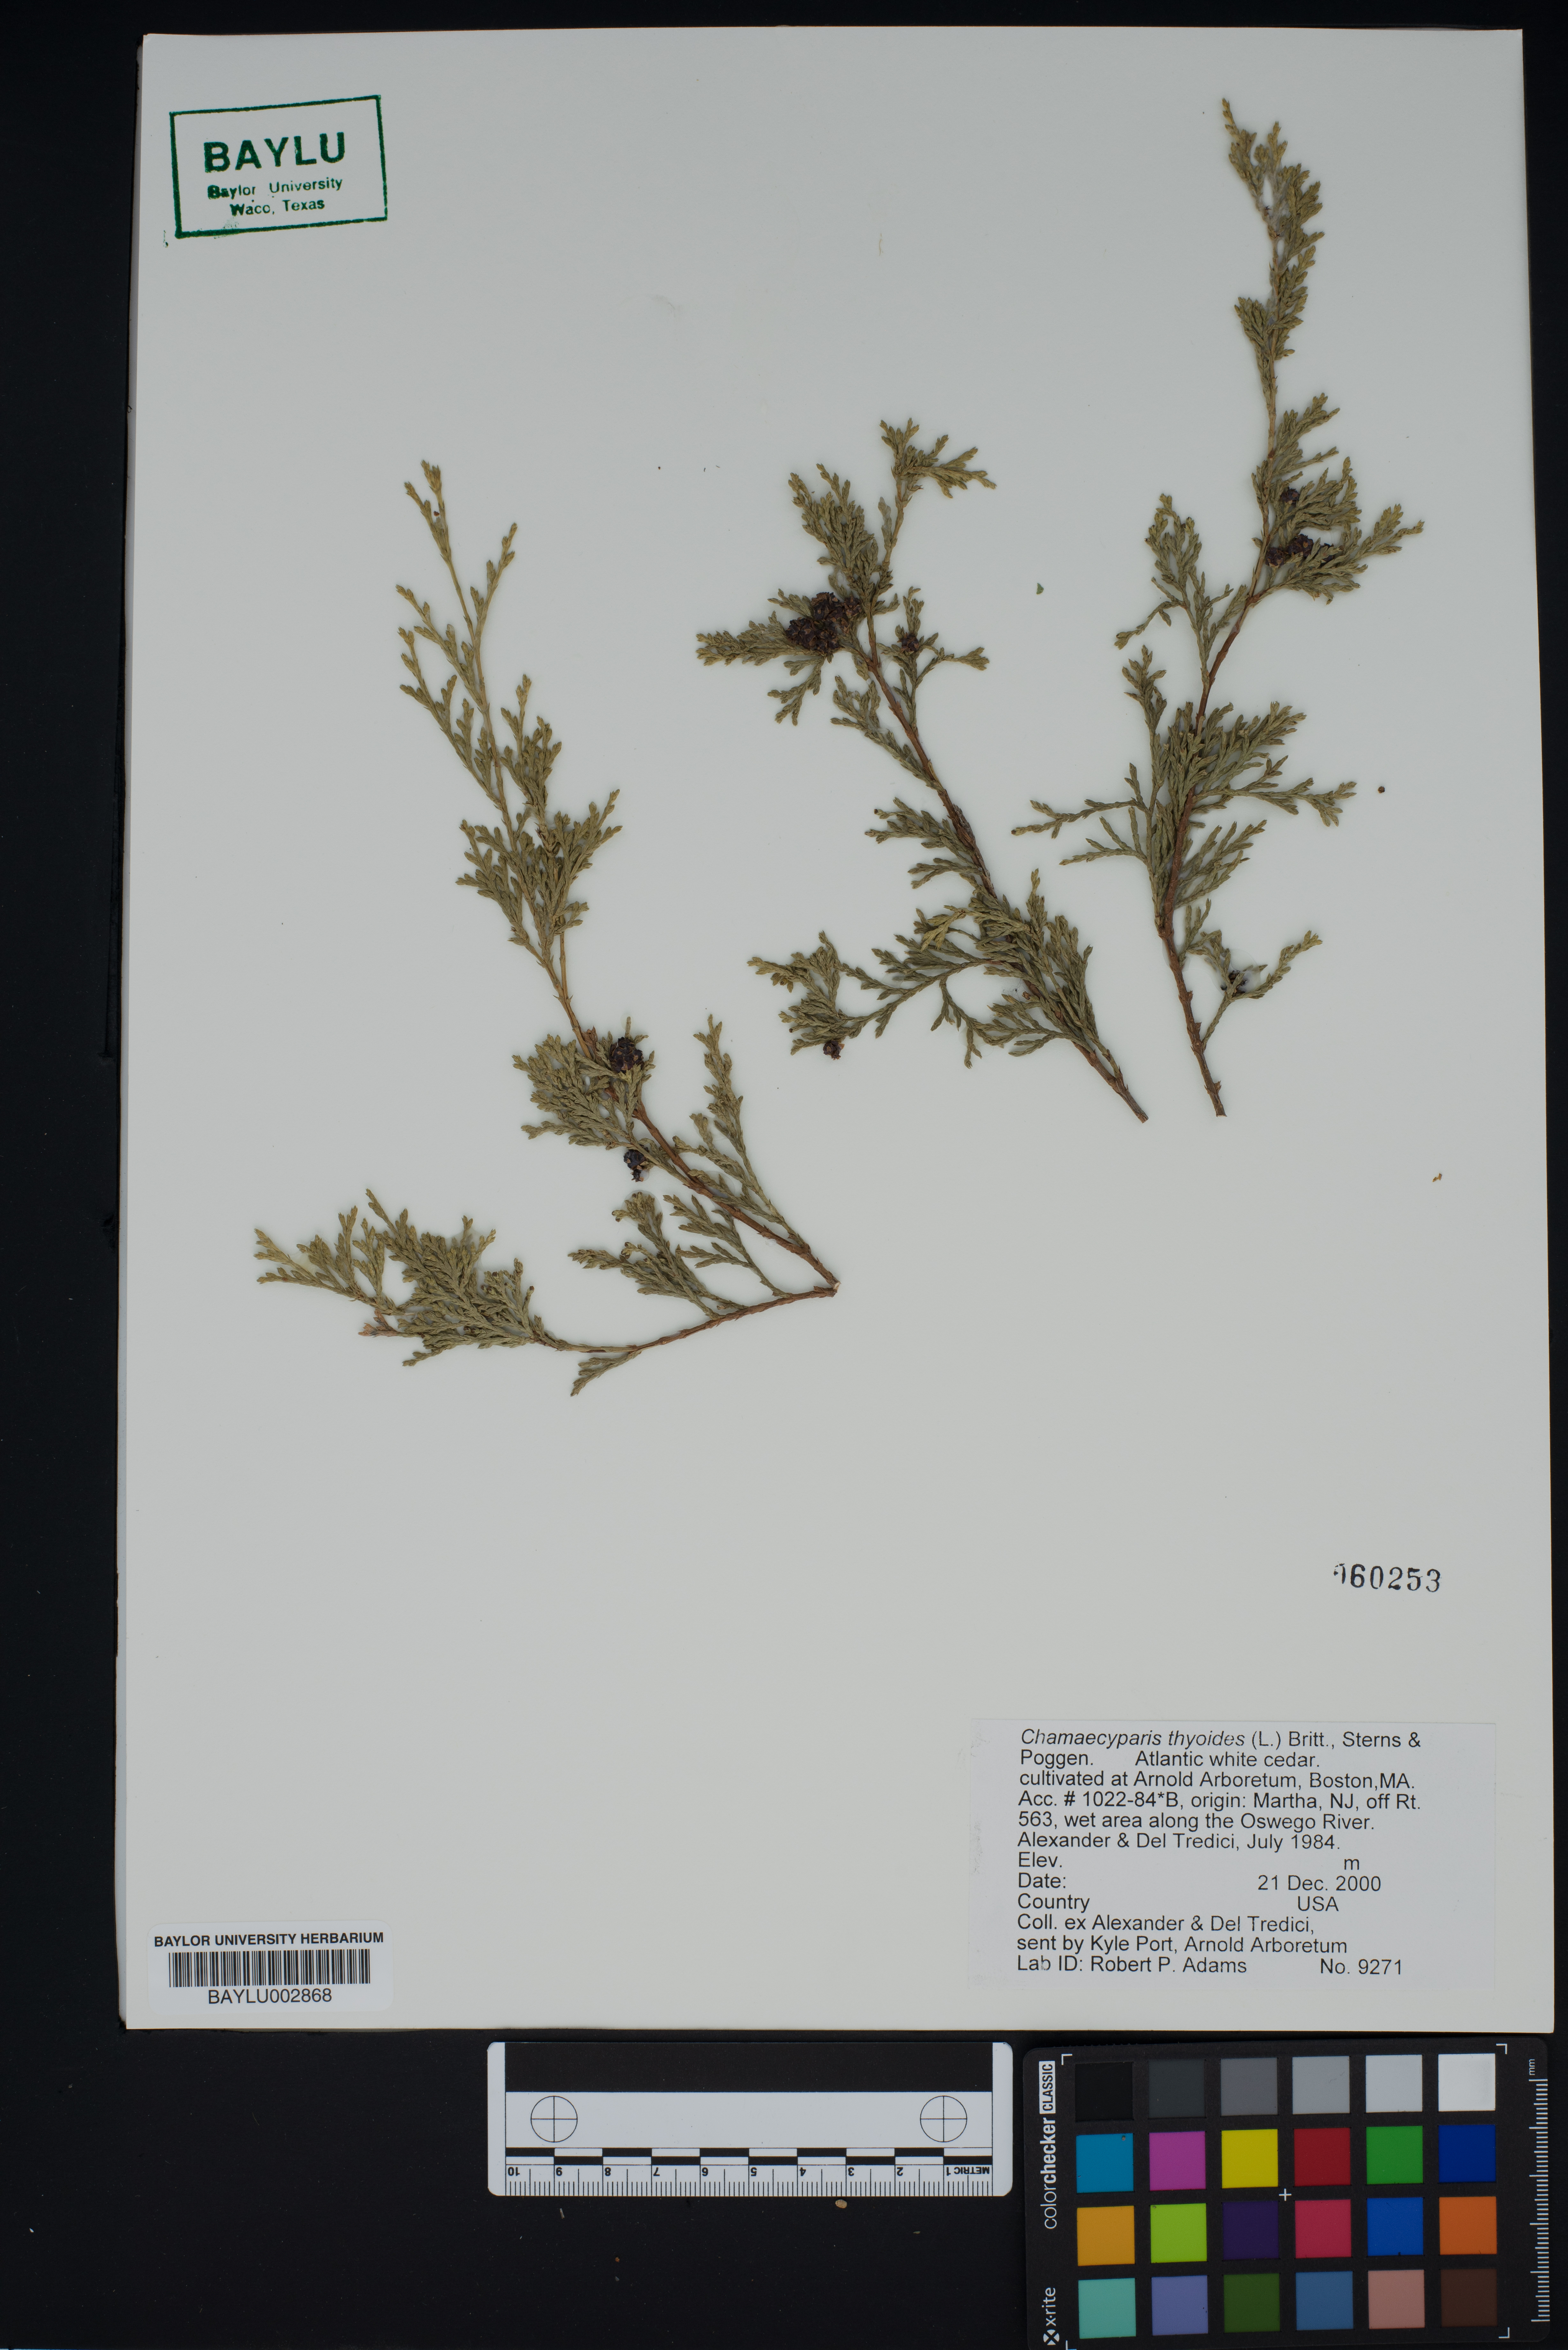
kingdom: Plantae
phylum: Tracheophyta
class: Pinopsida
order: Pinales
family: Cupressaceae
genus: Chamaecyparis
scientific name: Chamaecyparis thyoides
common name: Atlantic white cedar
